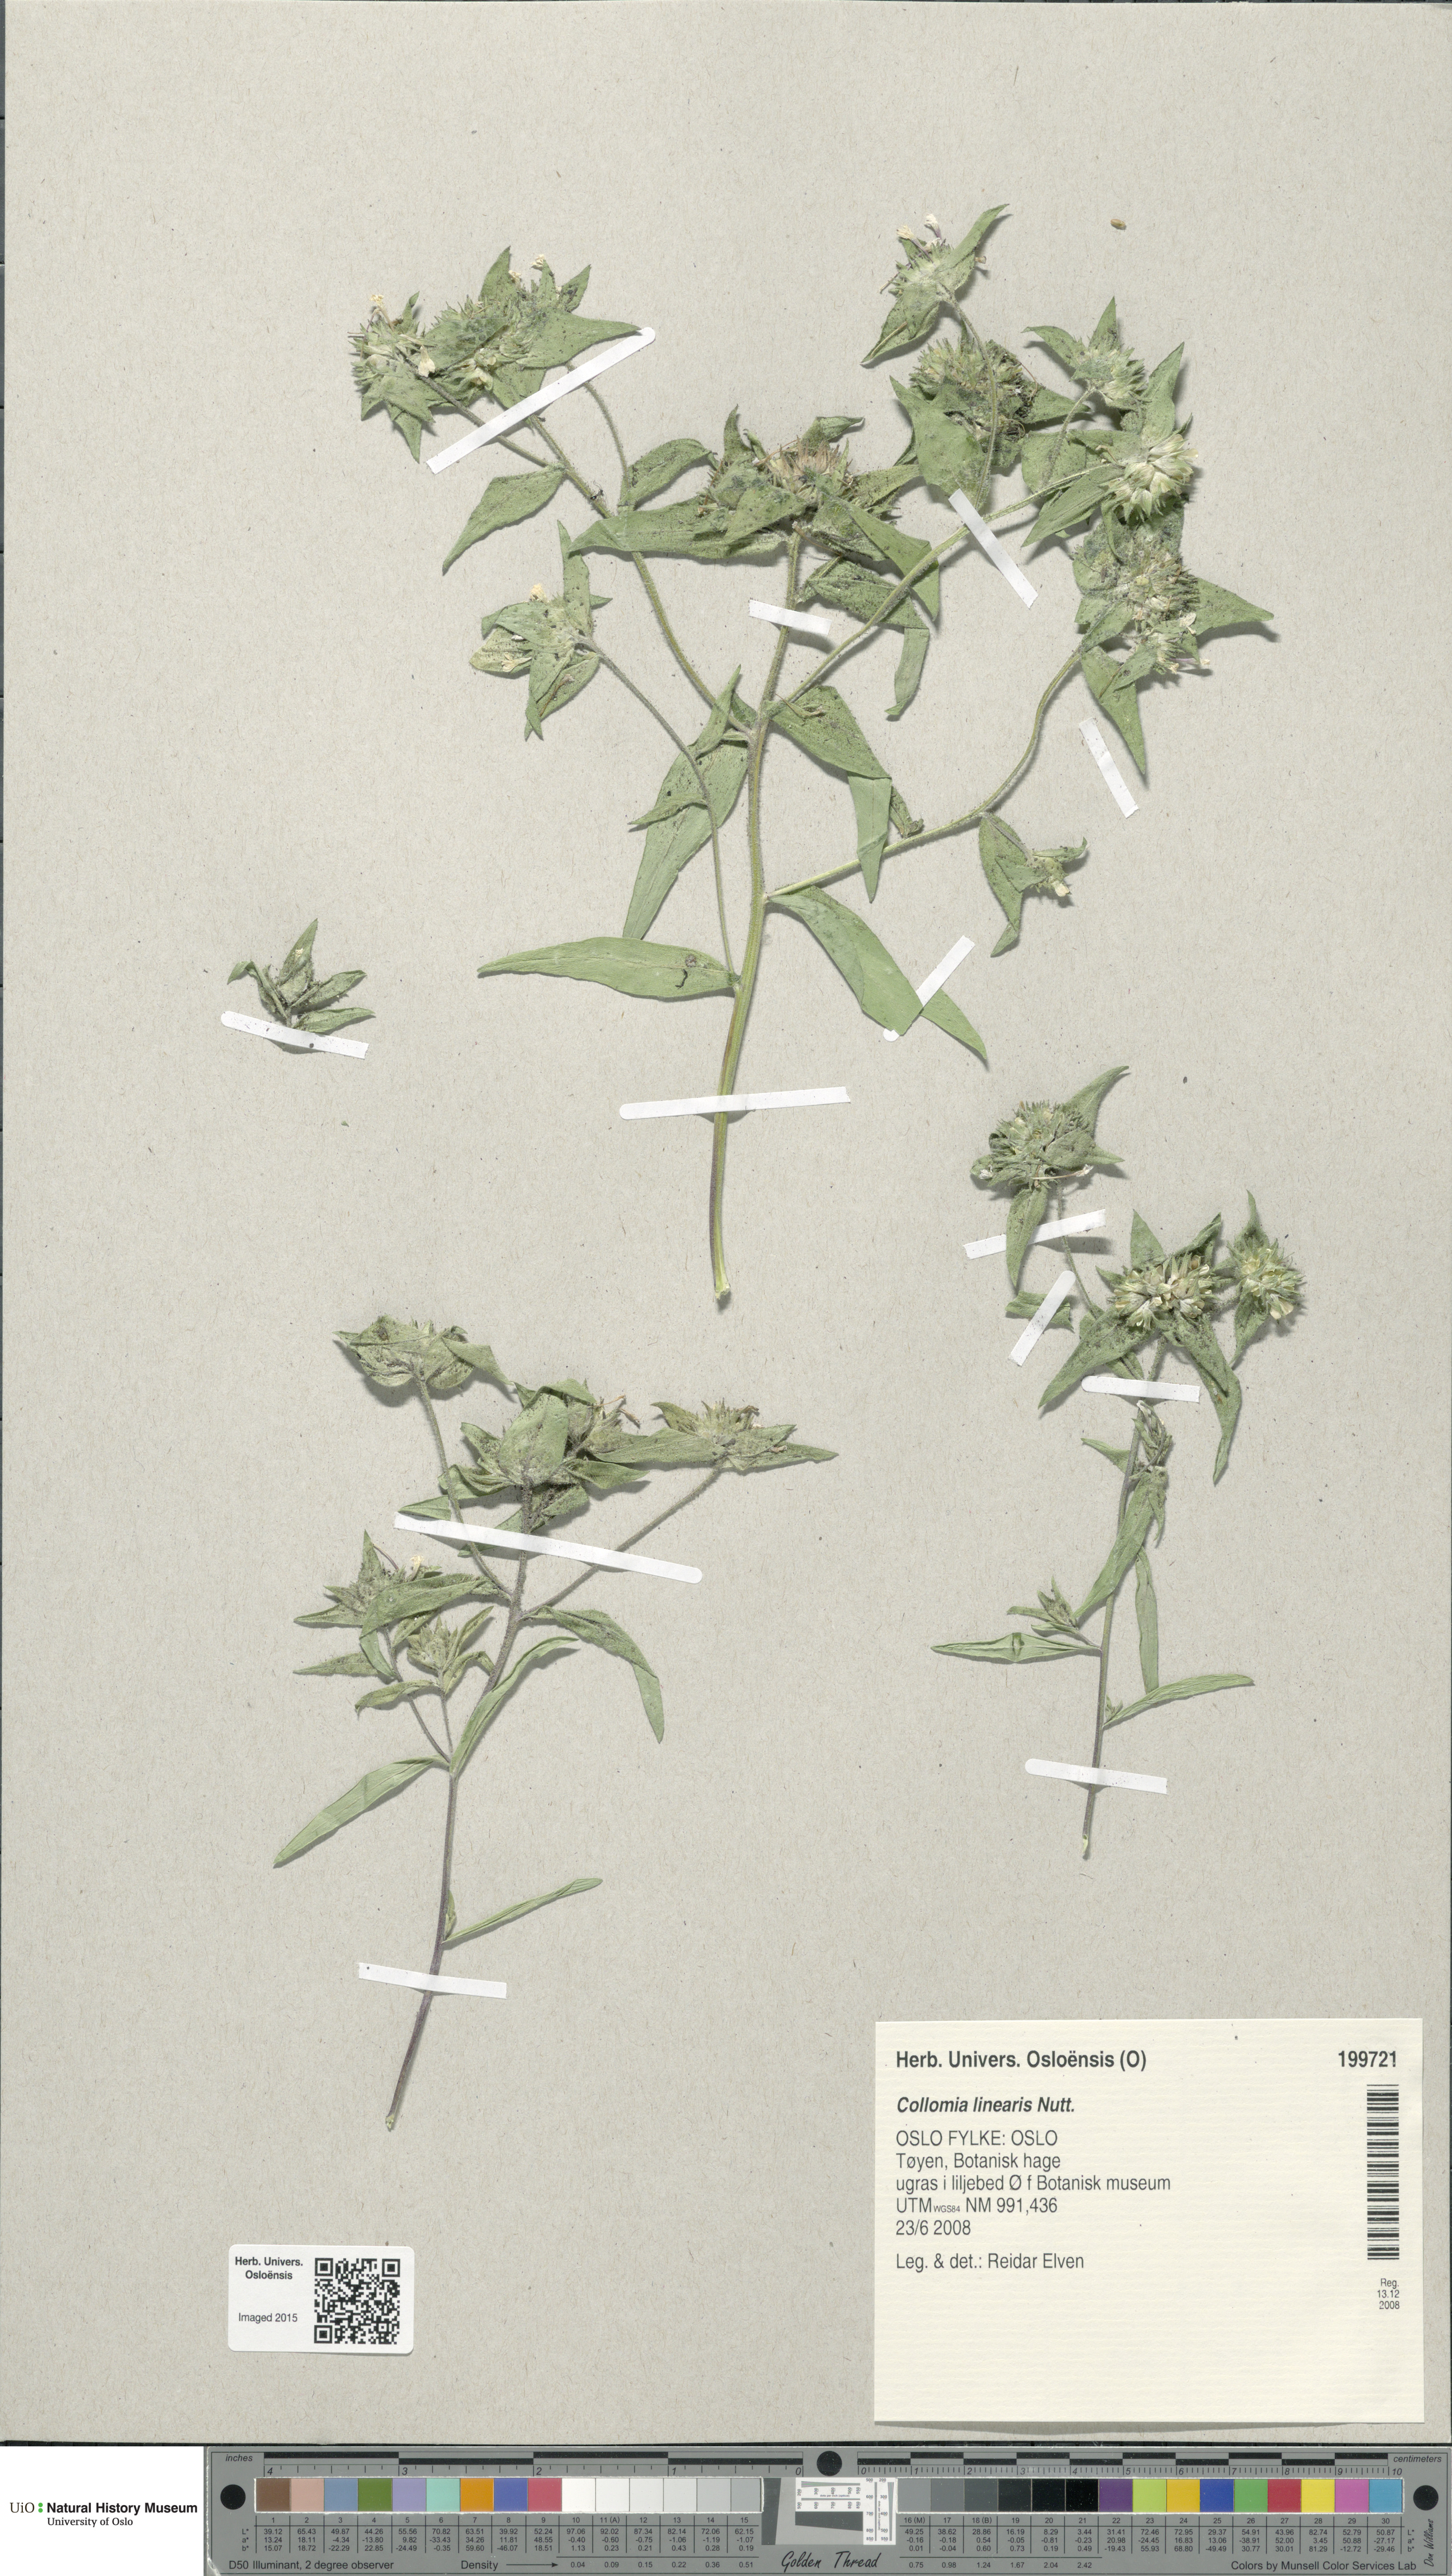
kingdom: Plantae
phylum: Tracheophyta
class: Magnoliopsida
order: Ericales
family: Polemoniaceae
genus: Collomia
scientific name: Collomia linearis
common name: Tiny trumpet
